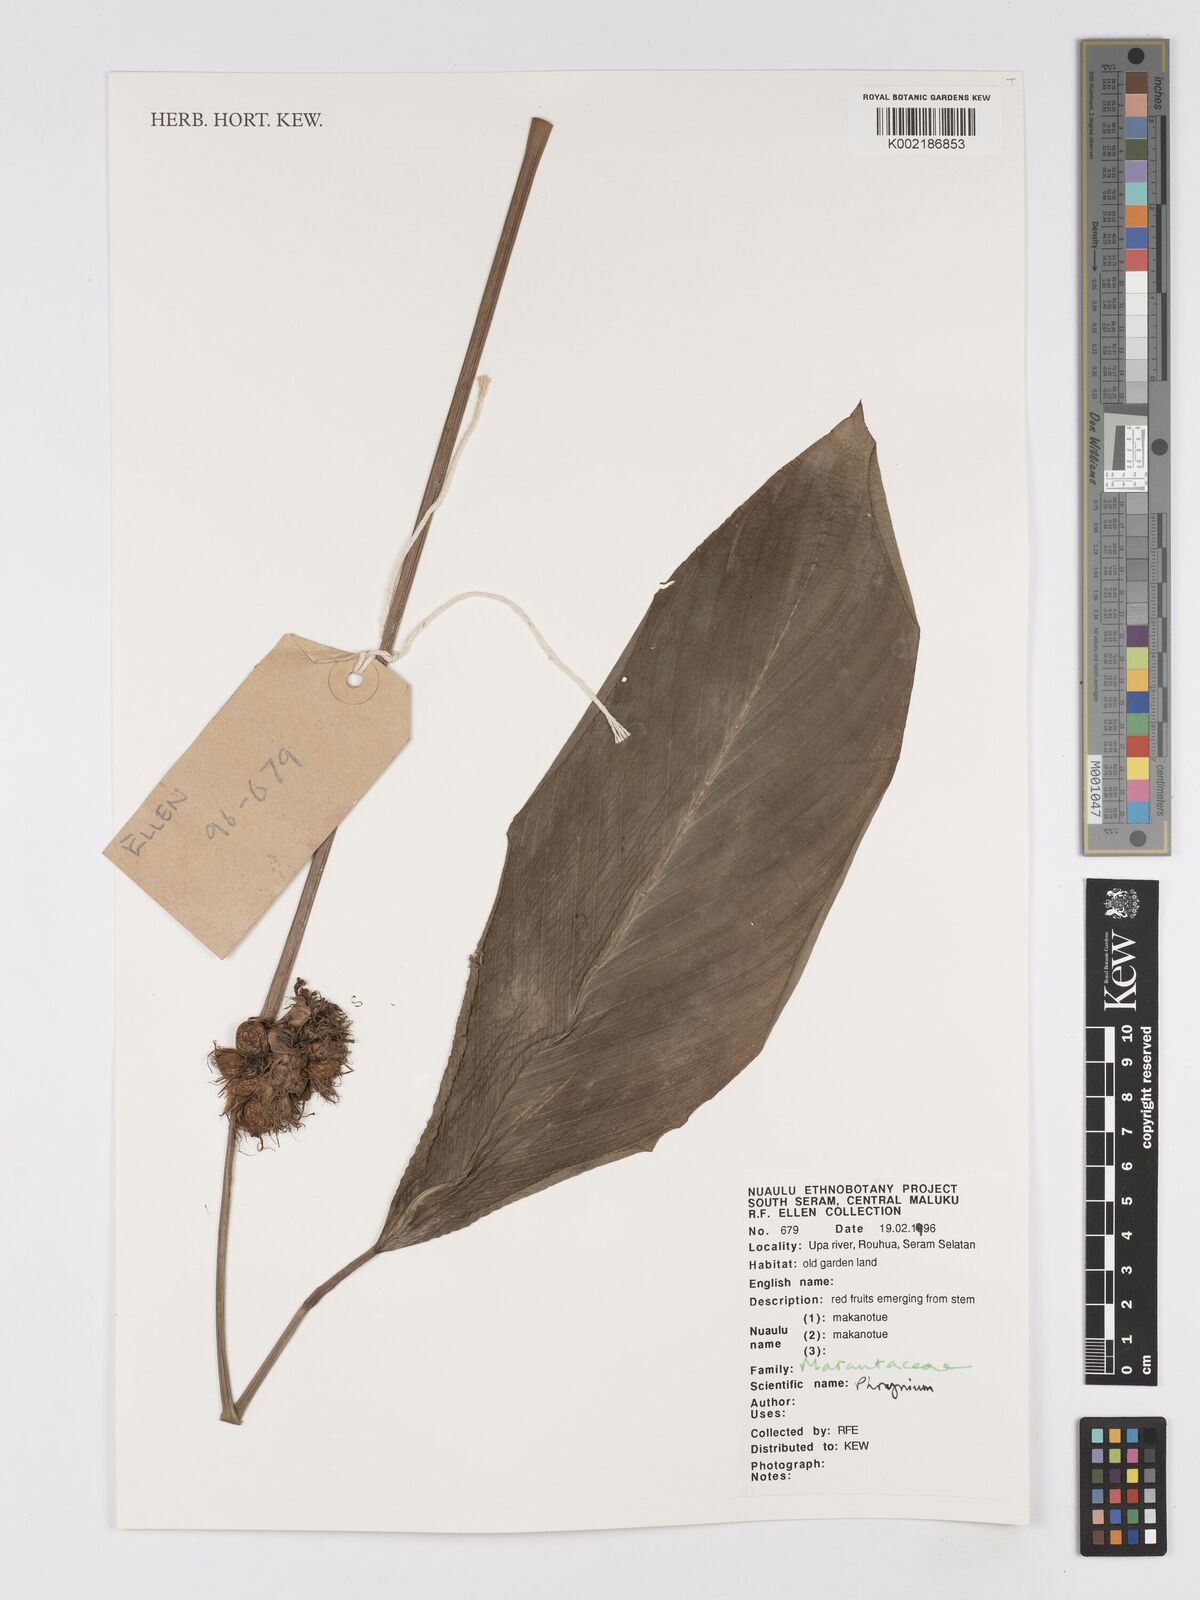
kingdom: Plantae
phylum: Tracheophyta
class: Liliopsida
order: Zingiberales
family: Marantaceae
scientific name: Marantaceae
